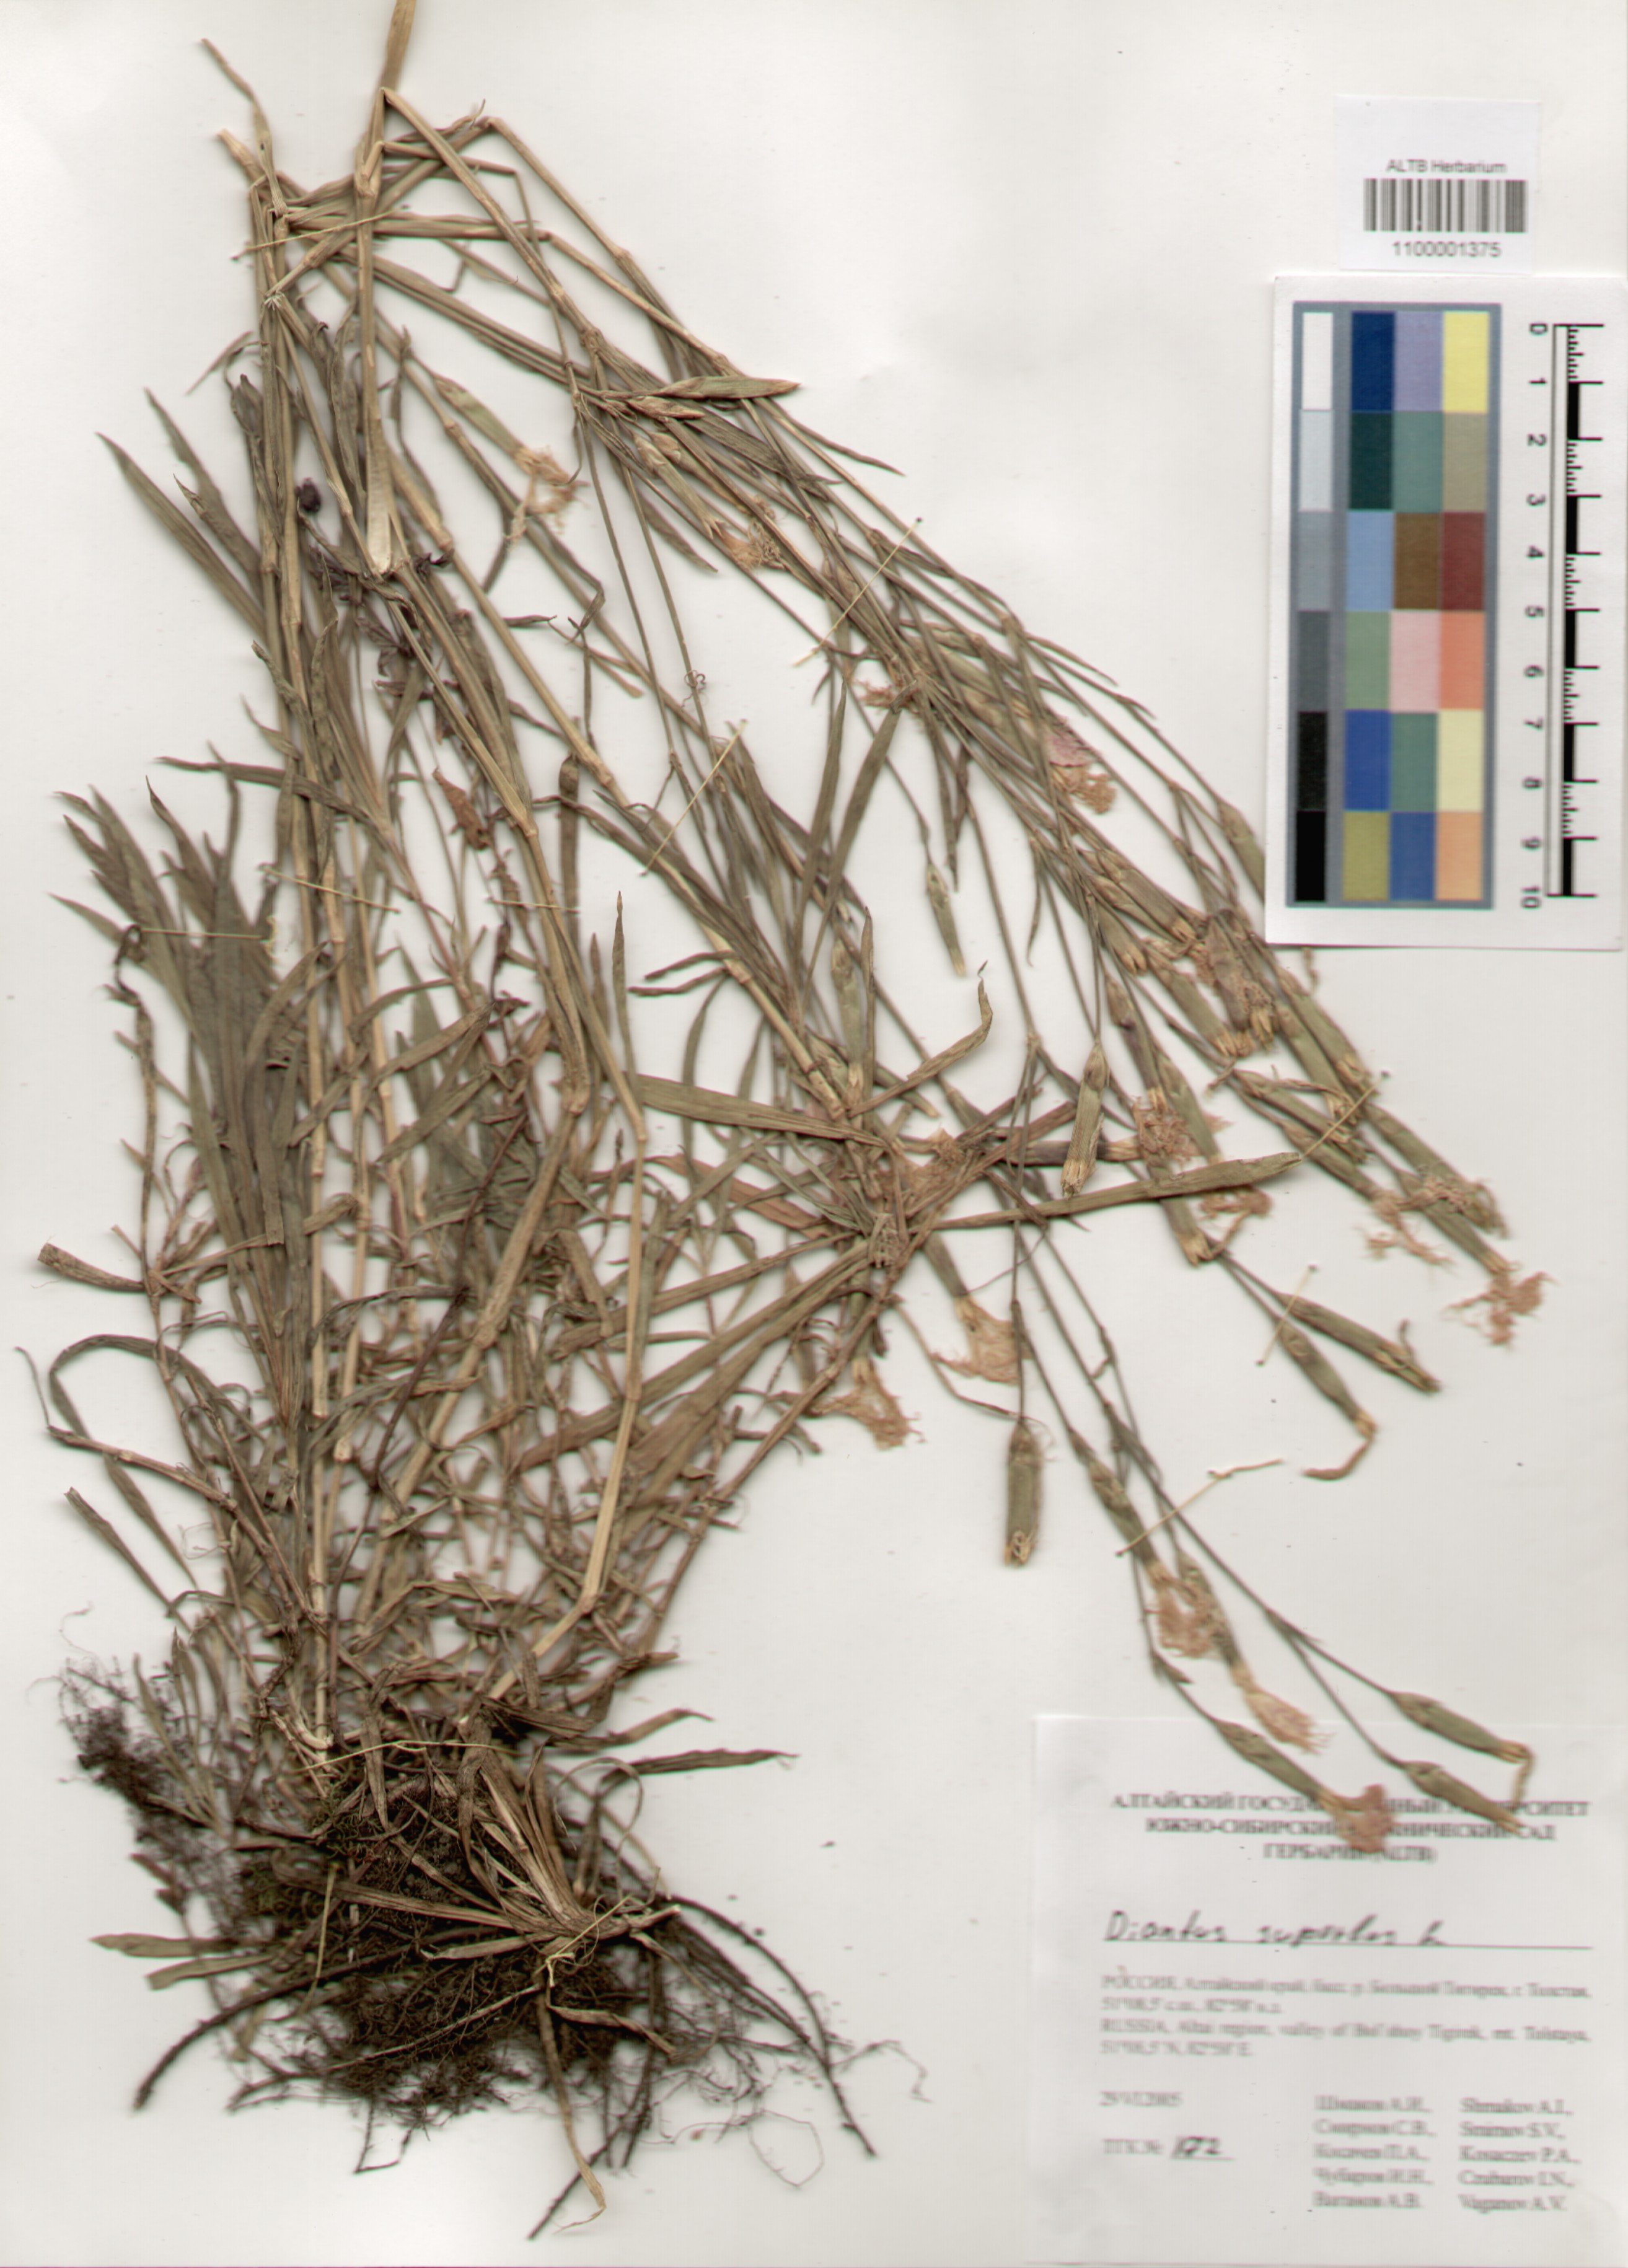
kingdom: Plantae
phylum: Tracheophyta
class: Magnoliopsida
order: Caryophyllales
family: Caryophyllaceae
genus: Dianthus
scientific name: Dianthus superbus
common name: Fringed pink
